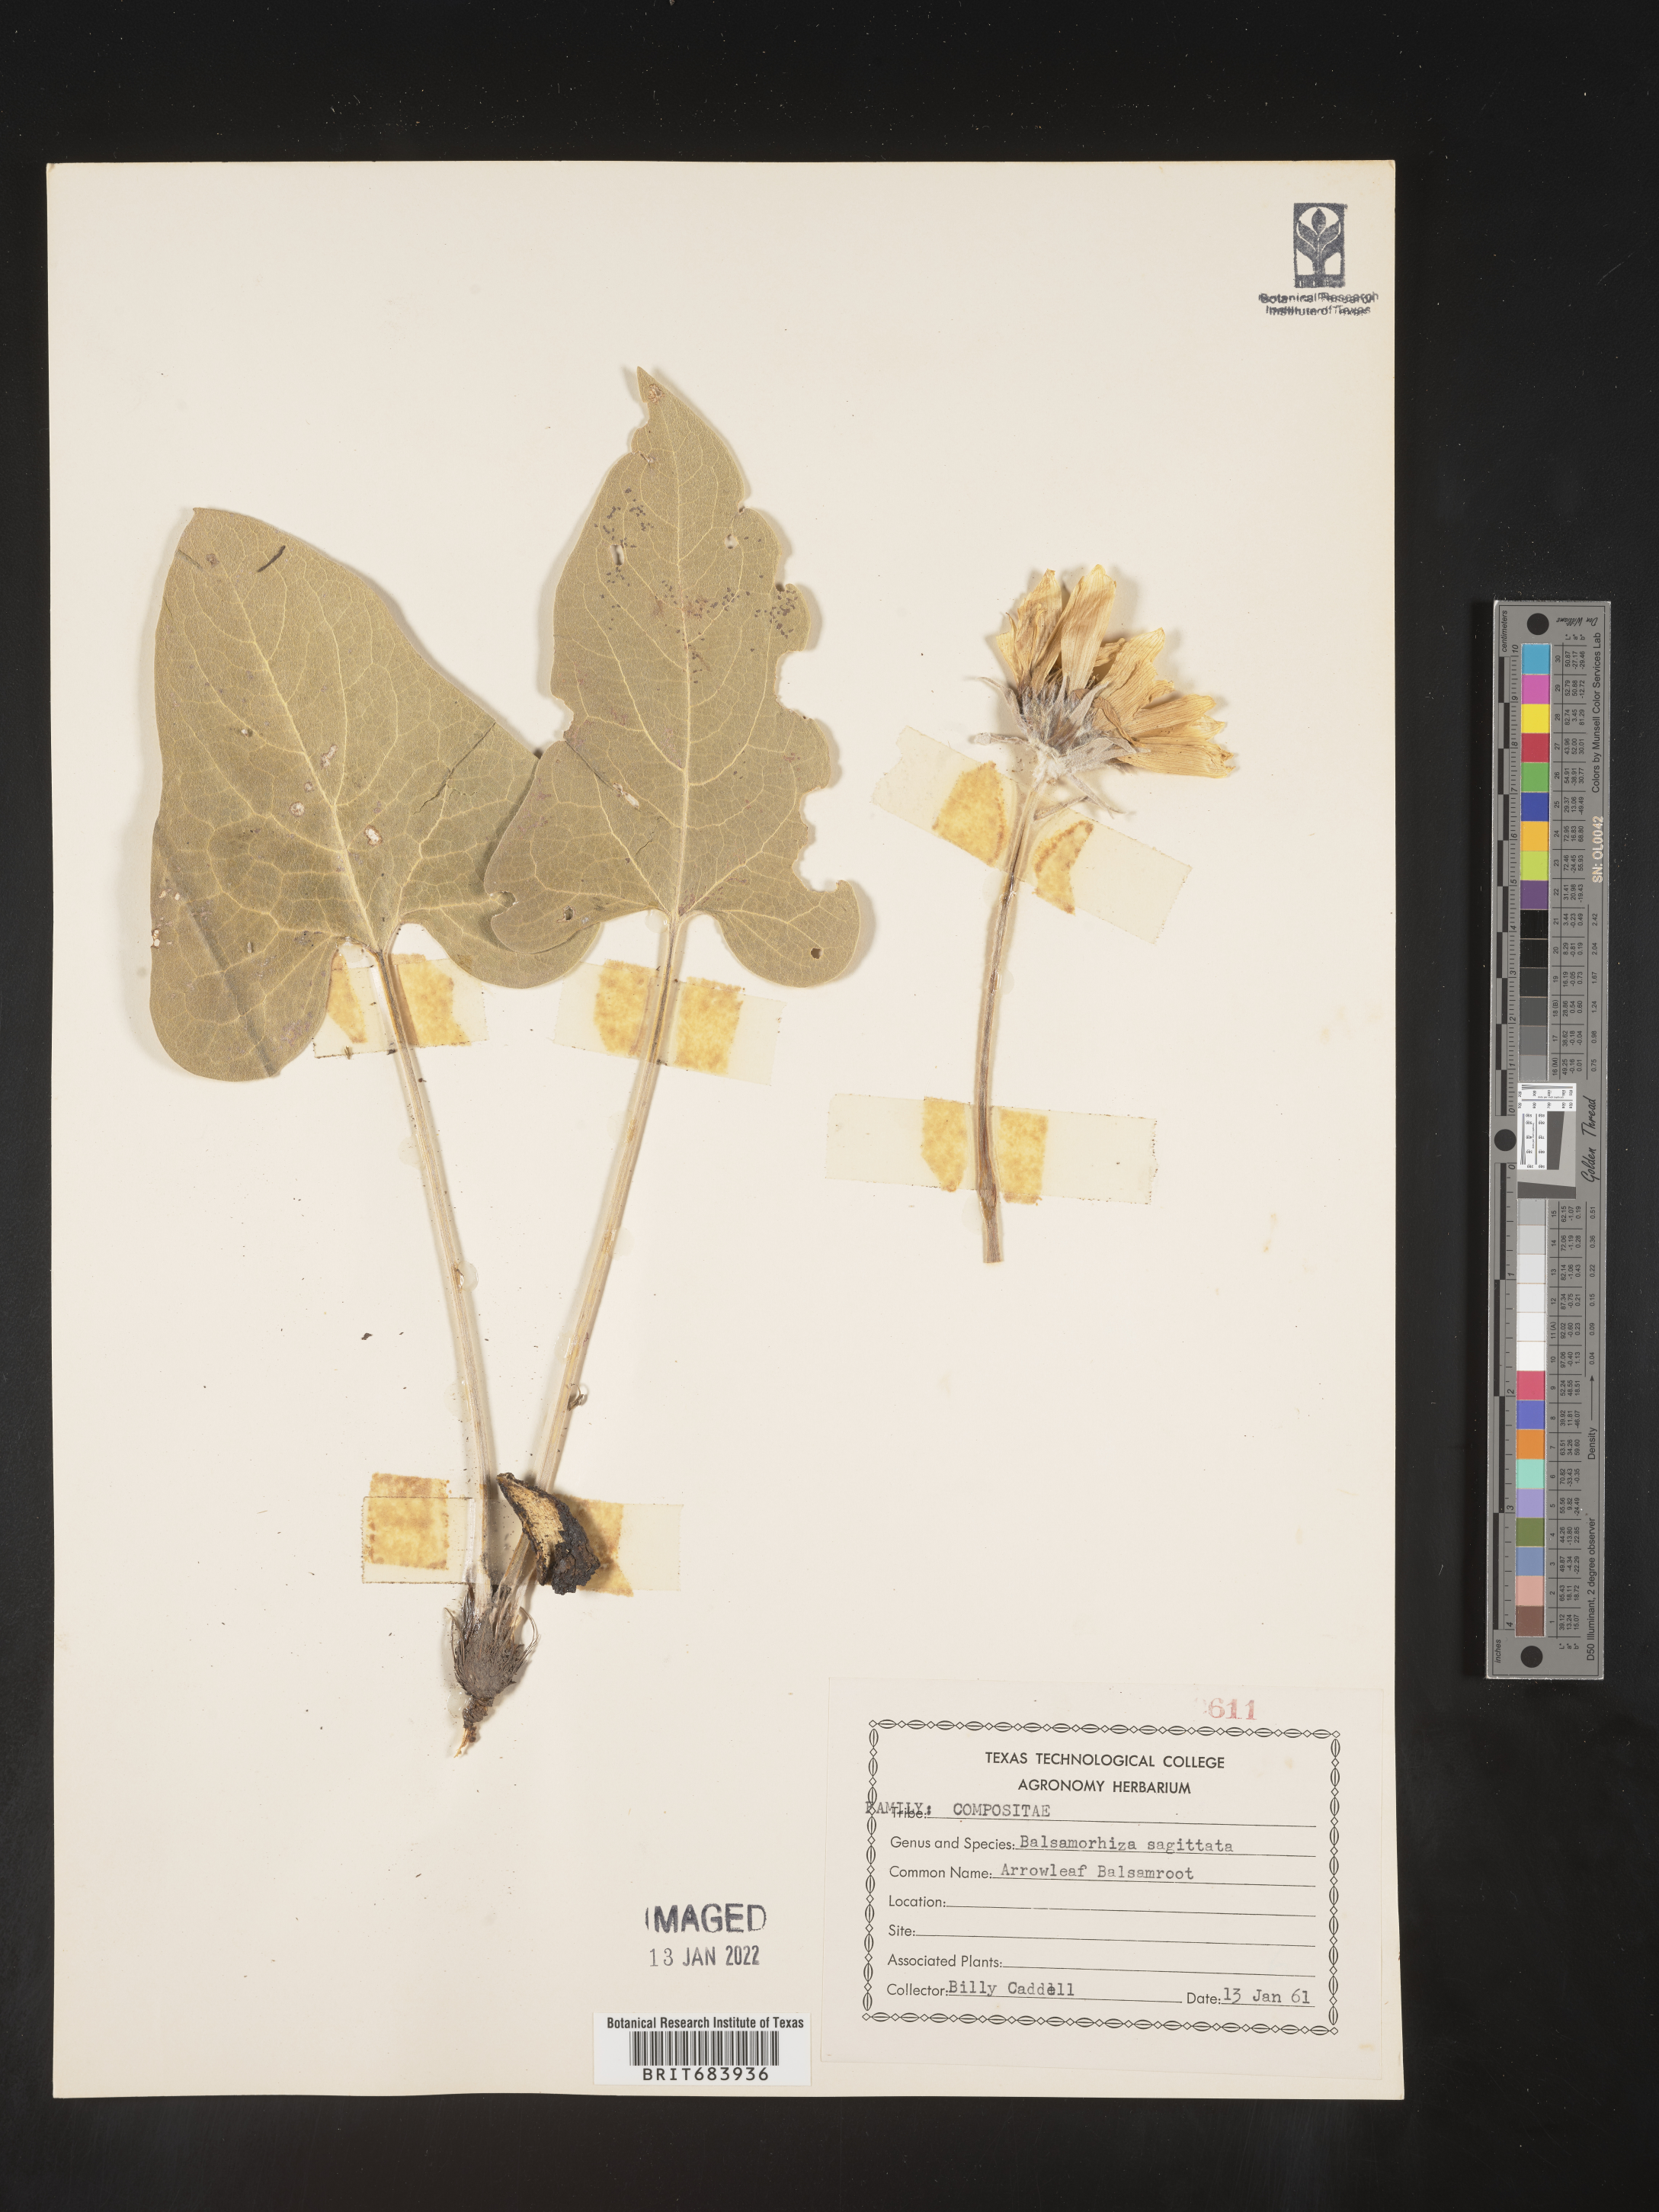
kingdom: Plantae
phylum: Tracheophyta
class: Magnoliopsida
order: Asterales
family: Asteraceae
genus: Wyethia
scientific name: Wyethia sagittata
